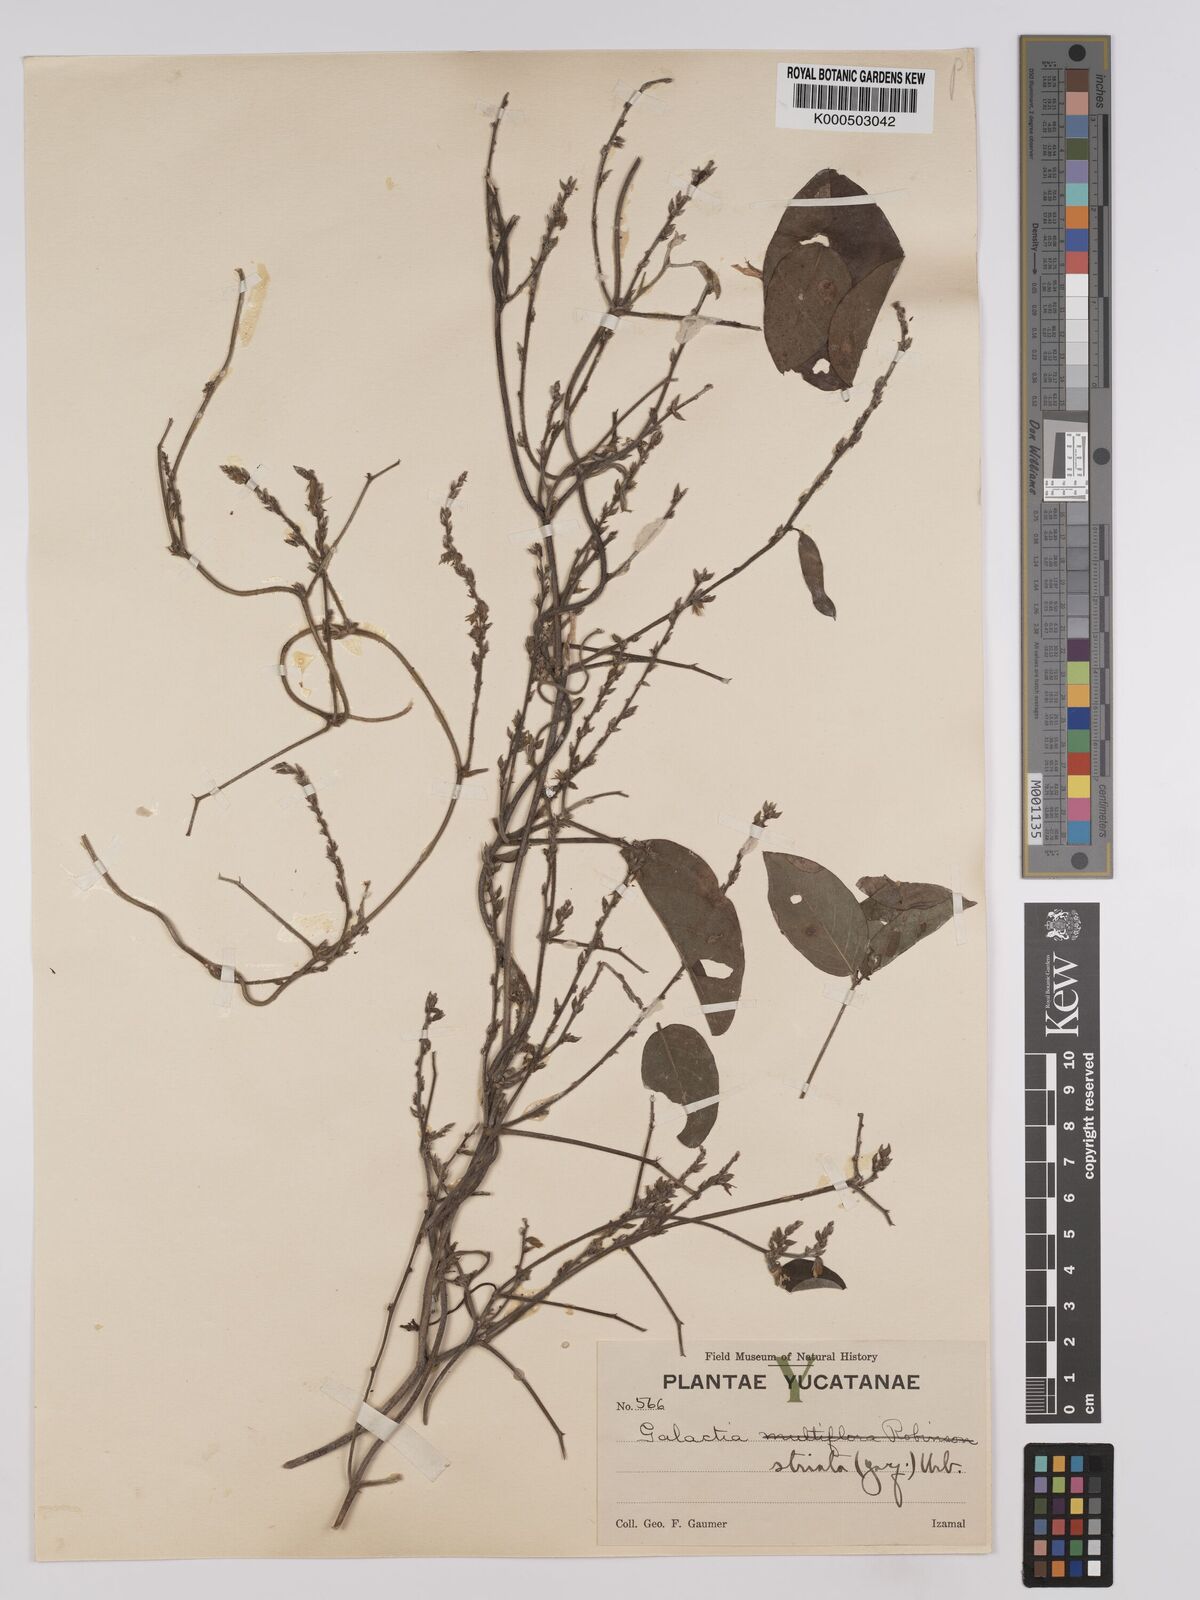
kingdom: Plantae
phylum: Tracheophyta
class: Magnoliopsida
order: Fabales
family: Fabaceae
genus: Galactia
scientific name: Galactia striata
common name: Florida hammock milkpea
